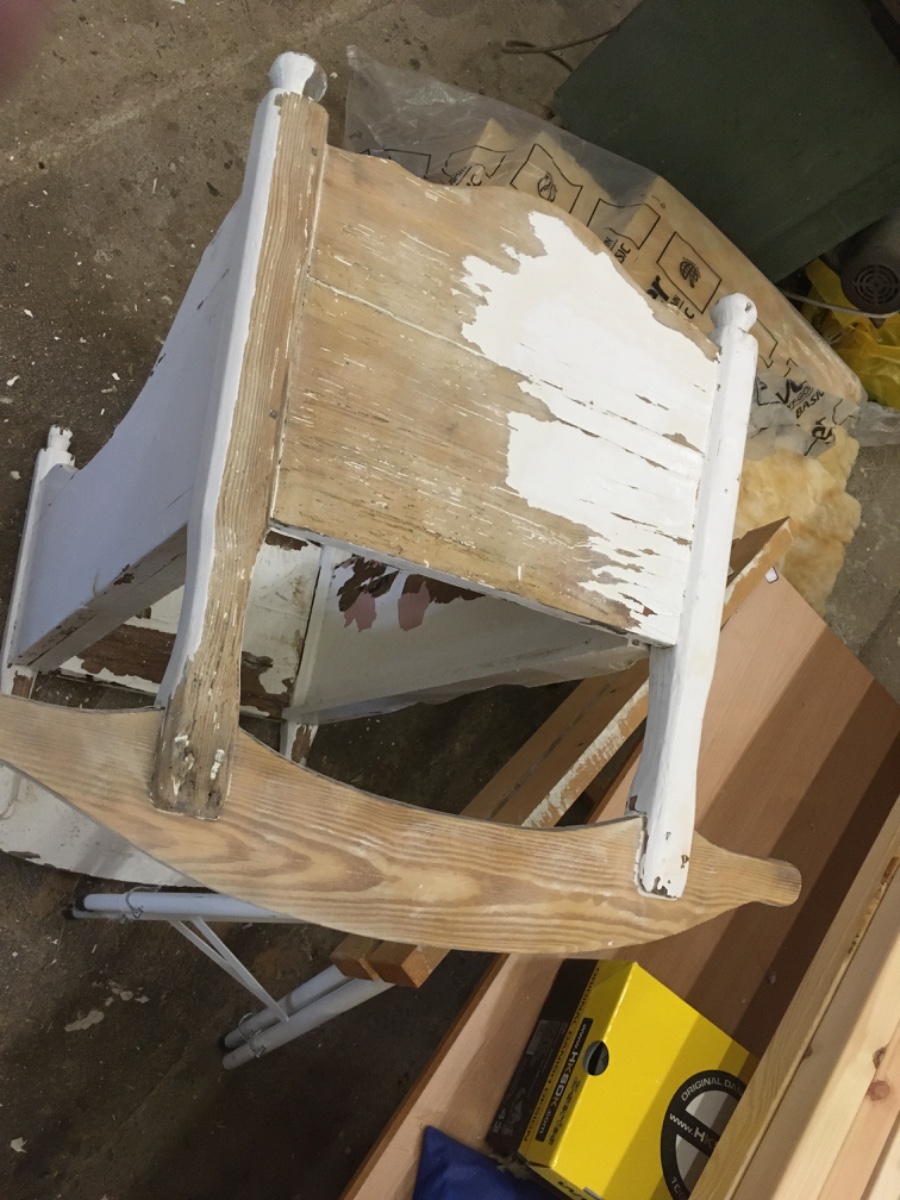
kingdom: Fungi
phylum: Basidiomycota
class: Agaricomycetes
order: Polyporales
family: Polyporaceae
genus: Ganoderma
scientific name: Ganoderma applanatum
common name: flad lakporesvamp
